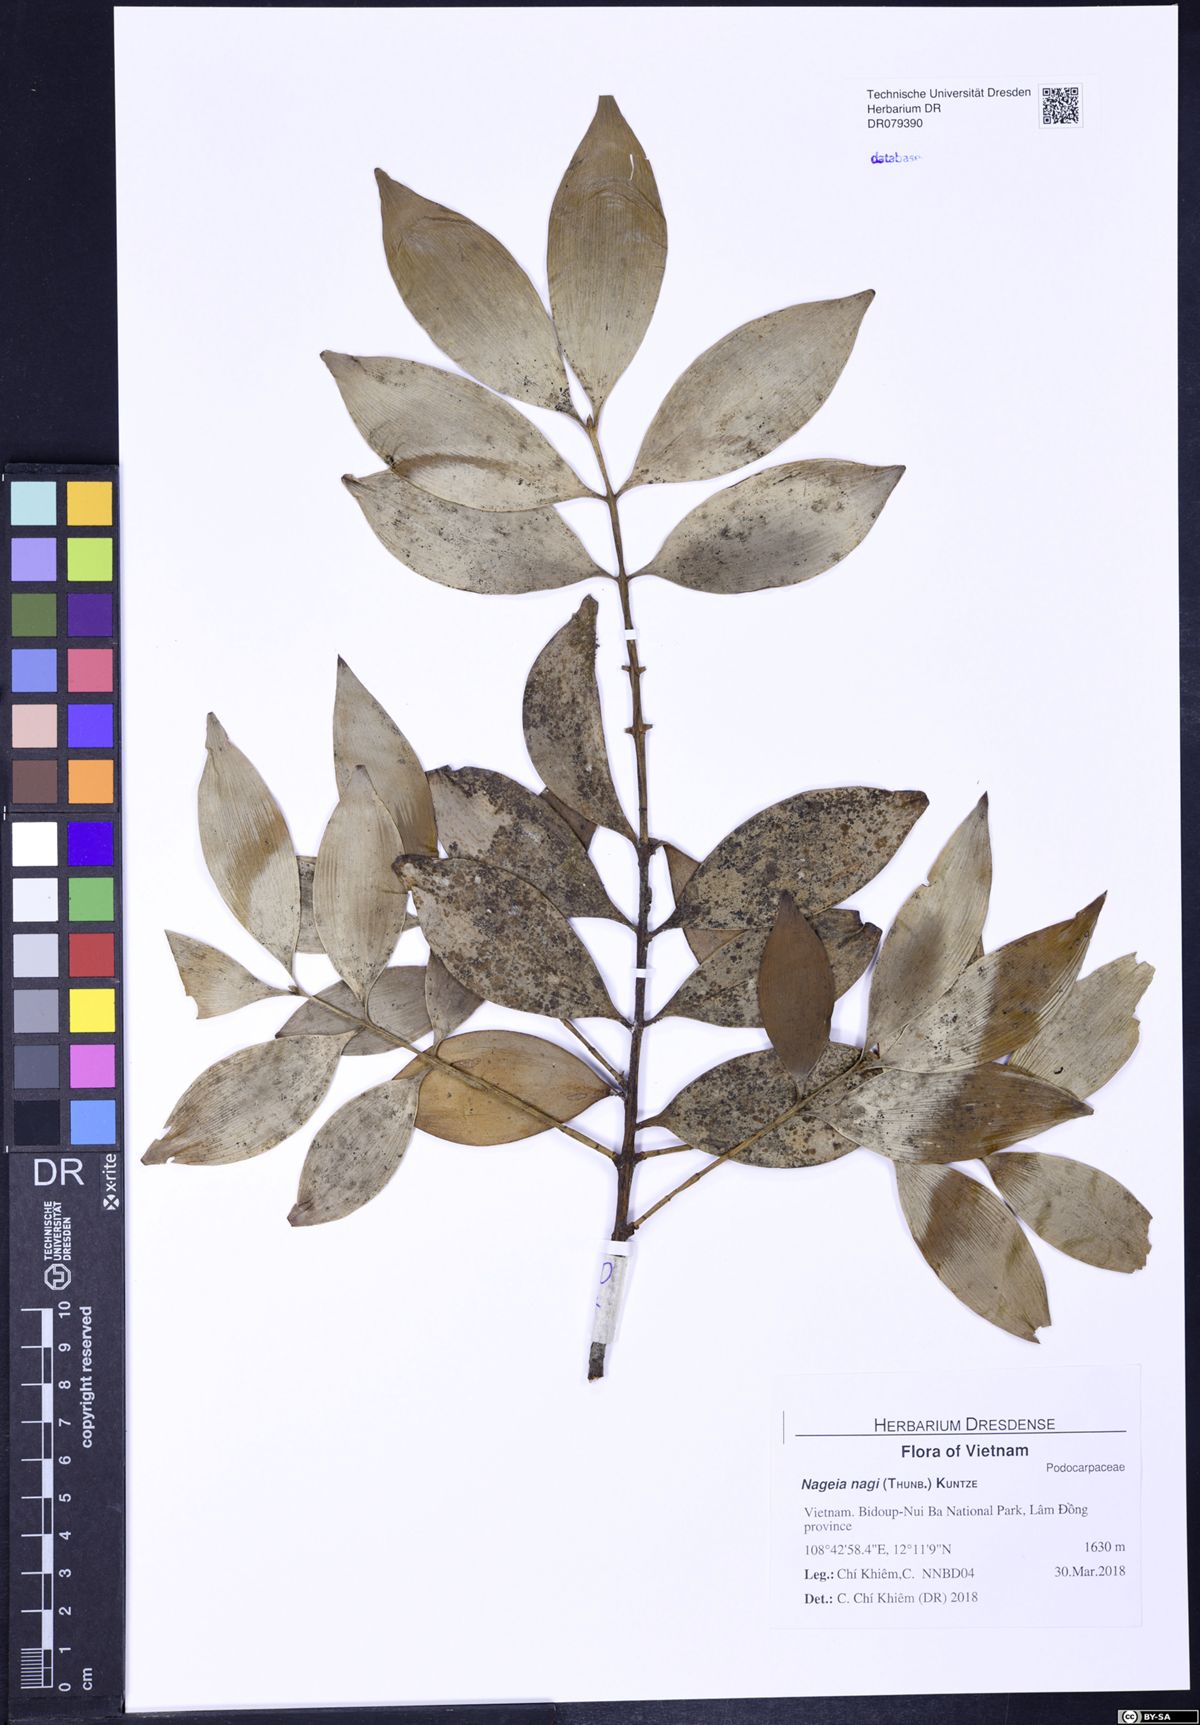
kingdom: Plantae
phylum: Tracheophyta
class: Pinopsida
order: Pinales
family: Podocarpaceae
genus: Nageia
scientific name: Nageia nagi
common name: Kaphal
